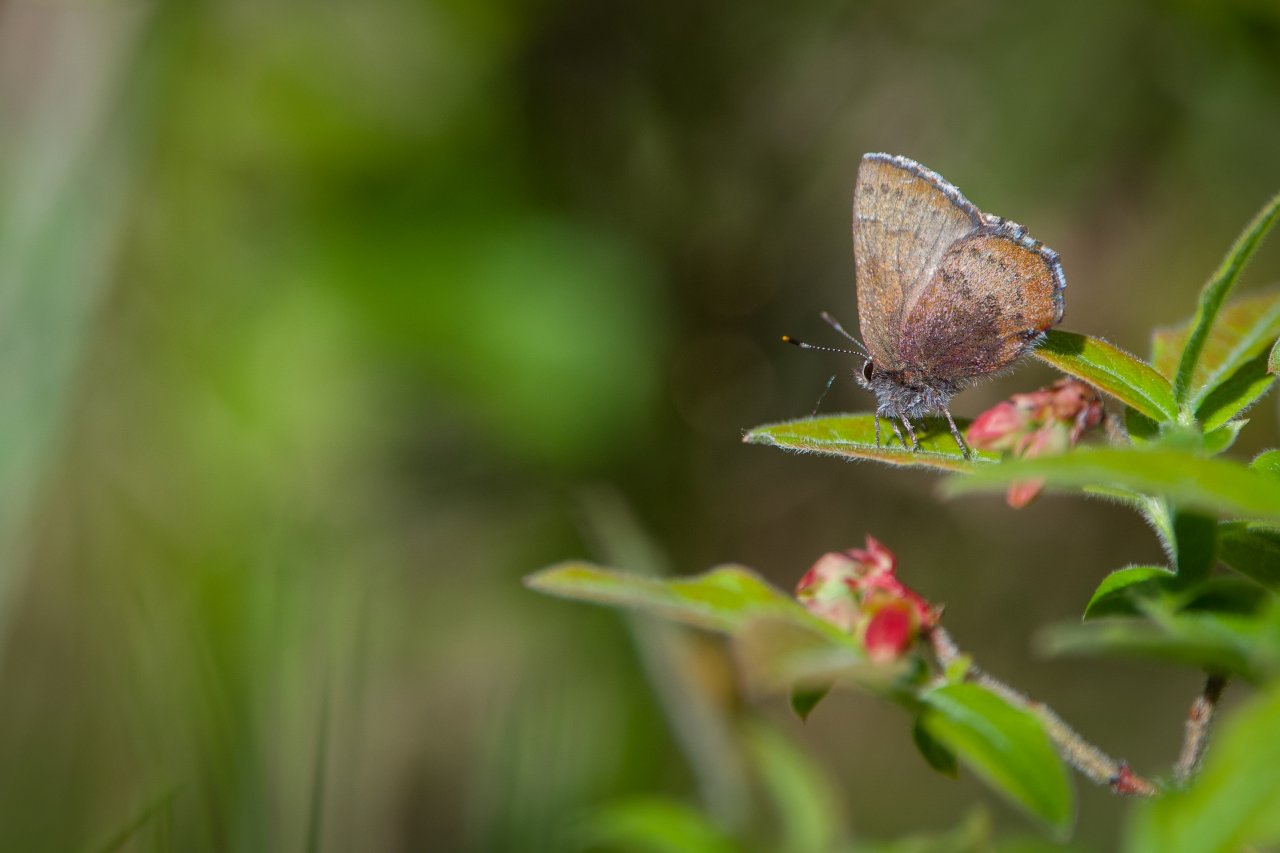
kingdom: Animalia
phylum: Arthropoda
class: Insecta
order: Lepidoptera
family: Lycaenidae
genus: Incisalia
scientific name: Incisalia irioides
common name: Brown Elfin
